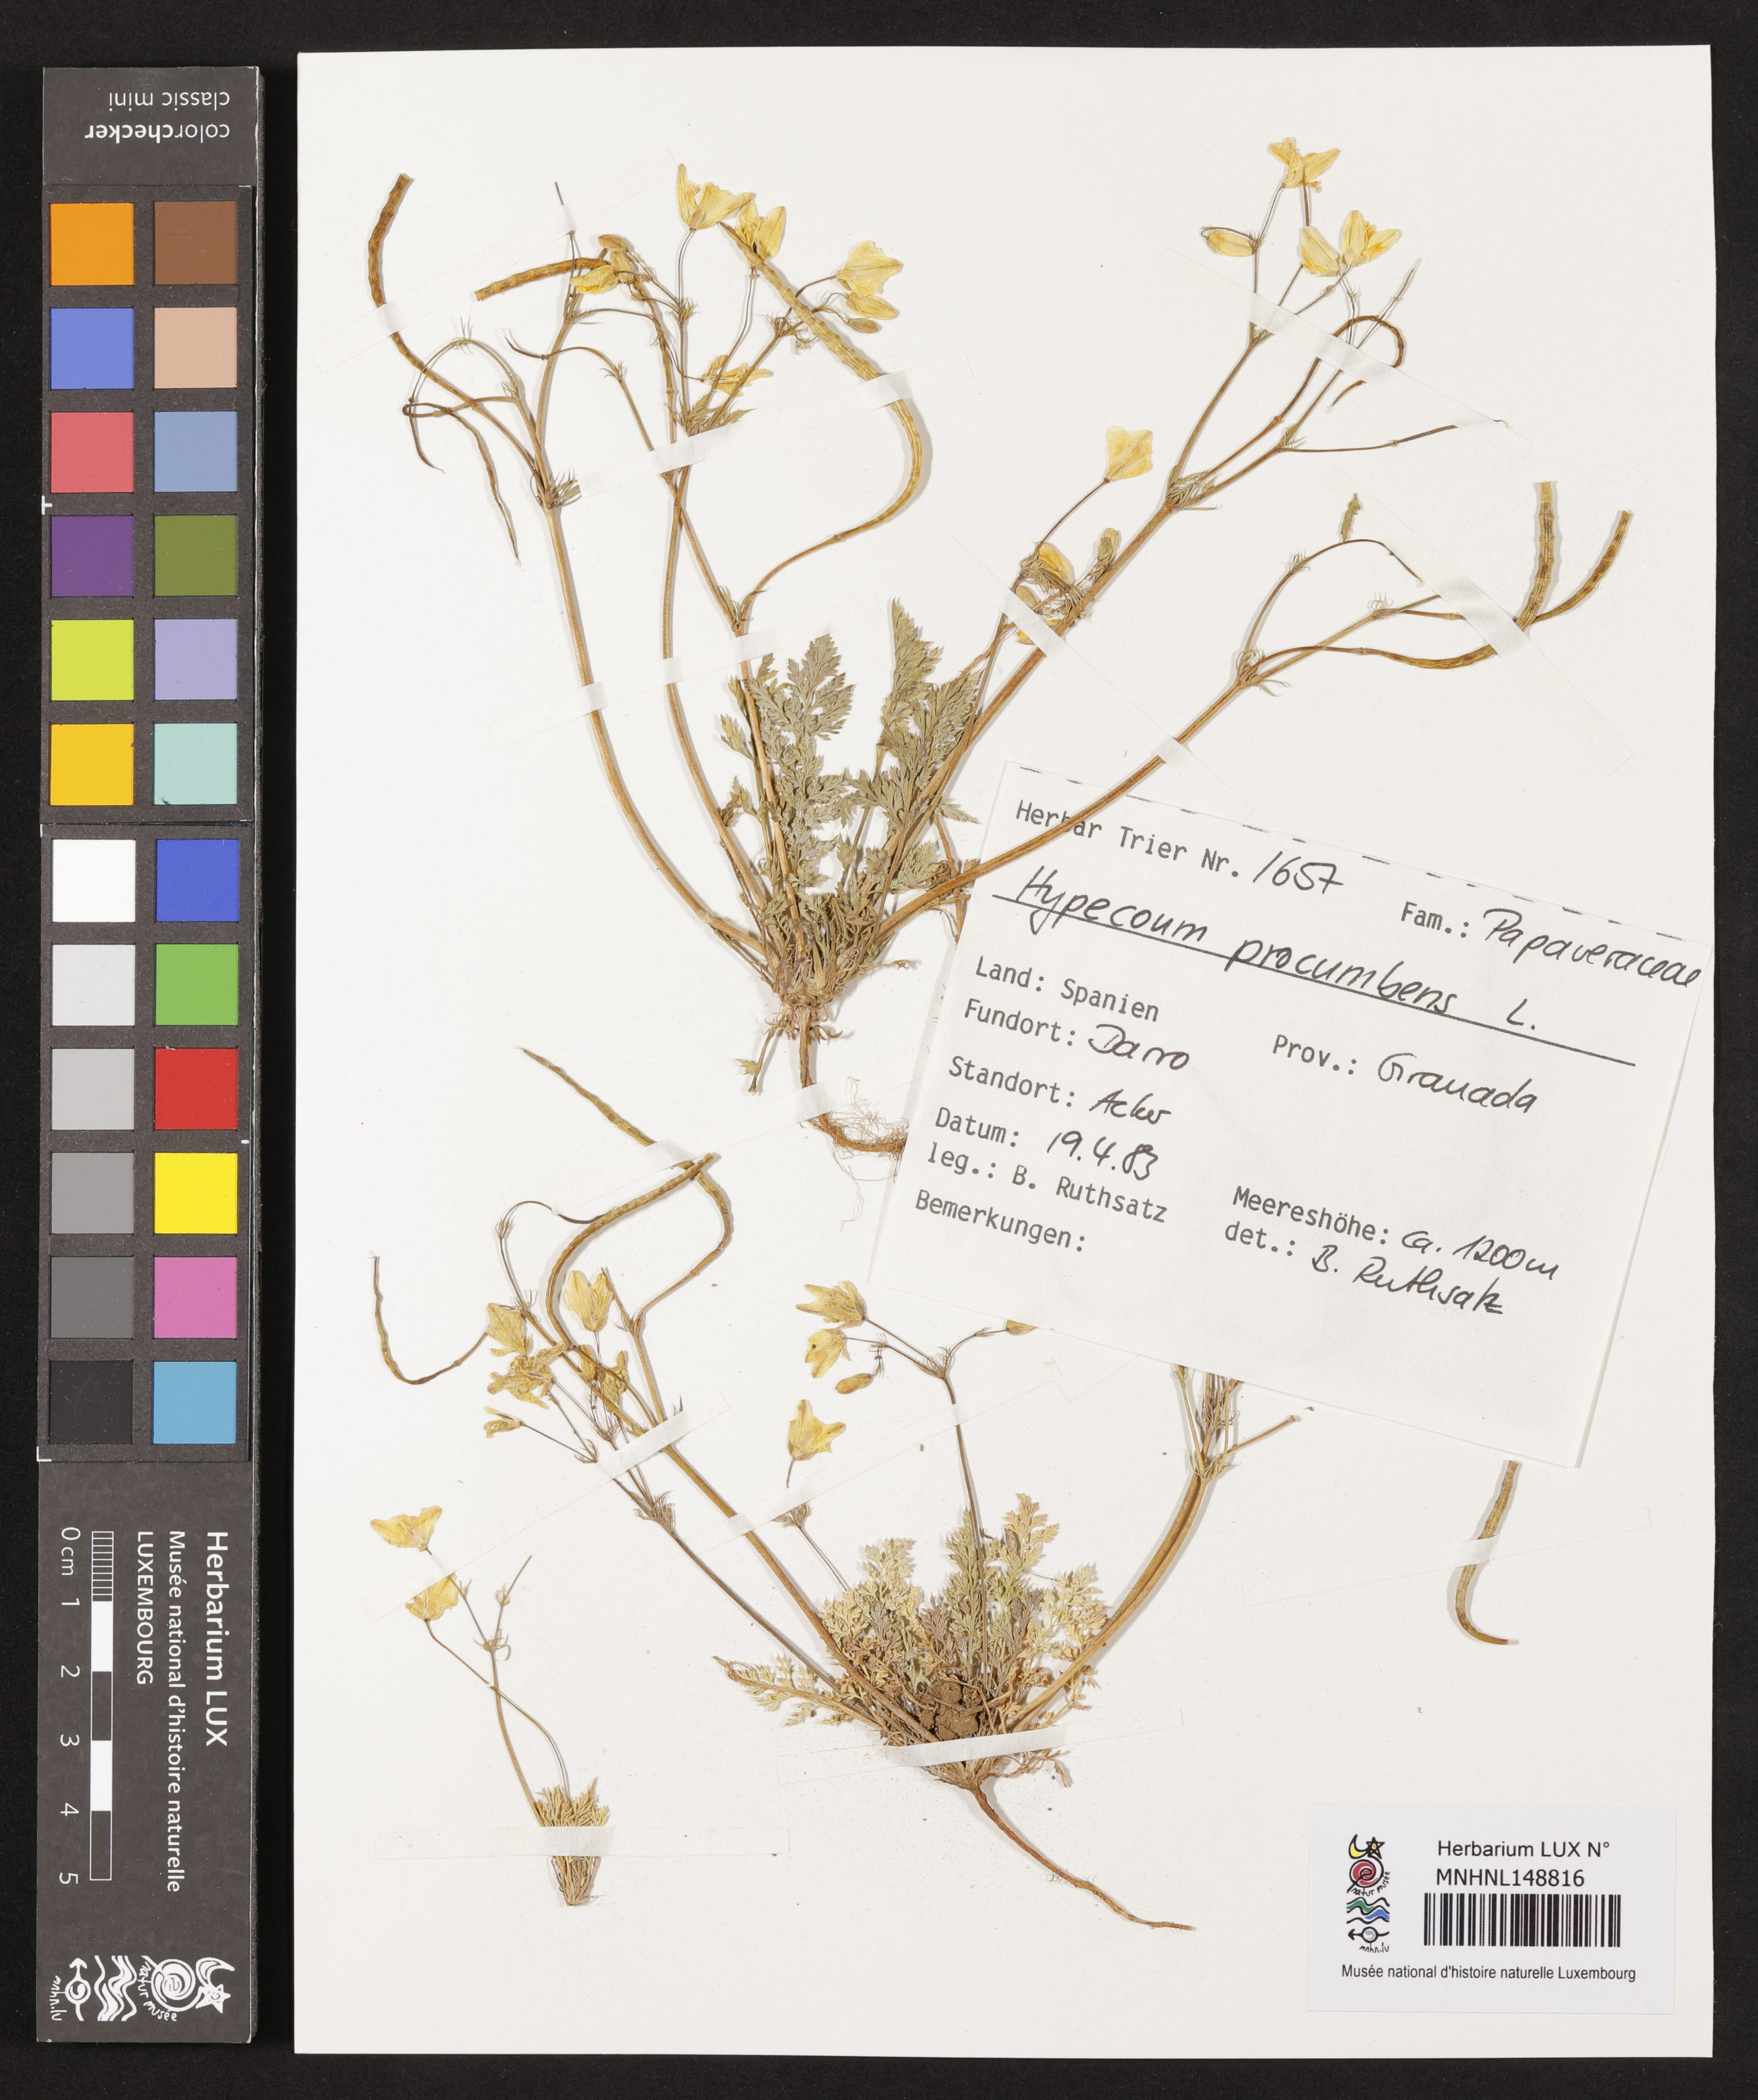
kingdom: Plantae
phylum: Tracheophyta
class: Magnoliopsida
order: Ranunculales
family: Papaveraceae
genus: Hypecoum
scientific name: Hypecoum procumbens
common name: Procumbent hypecoum
